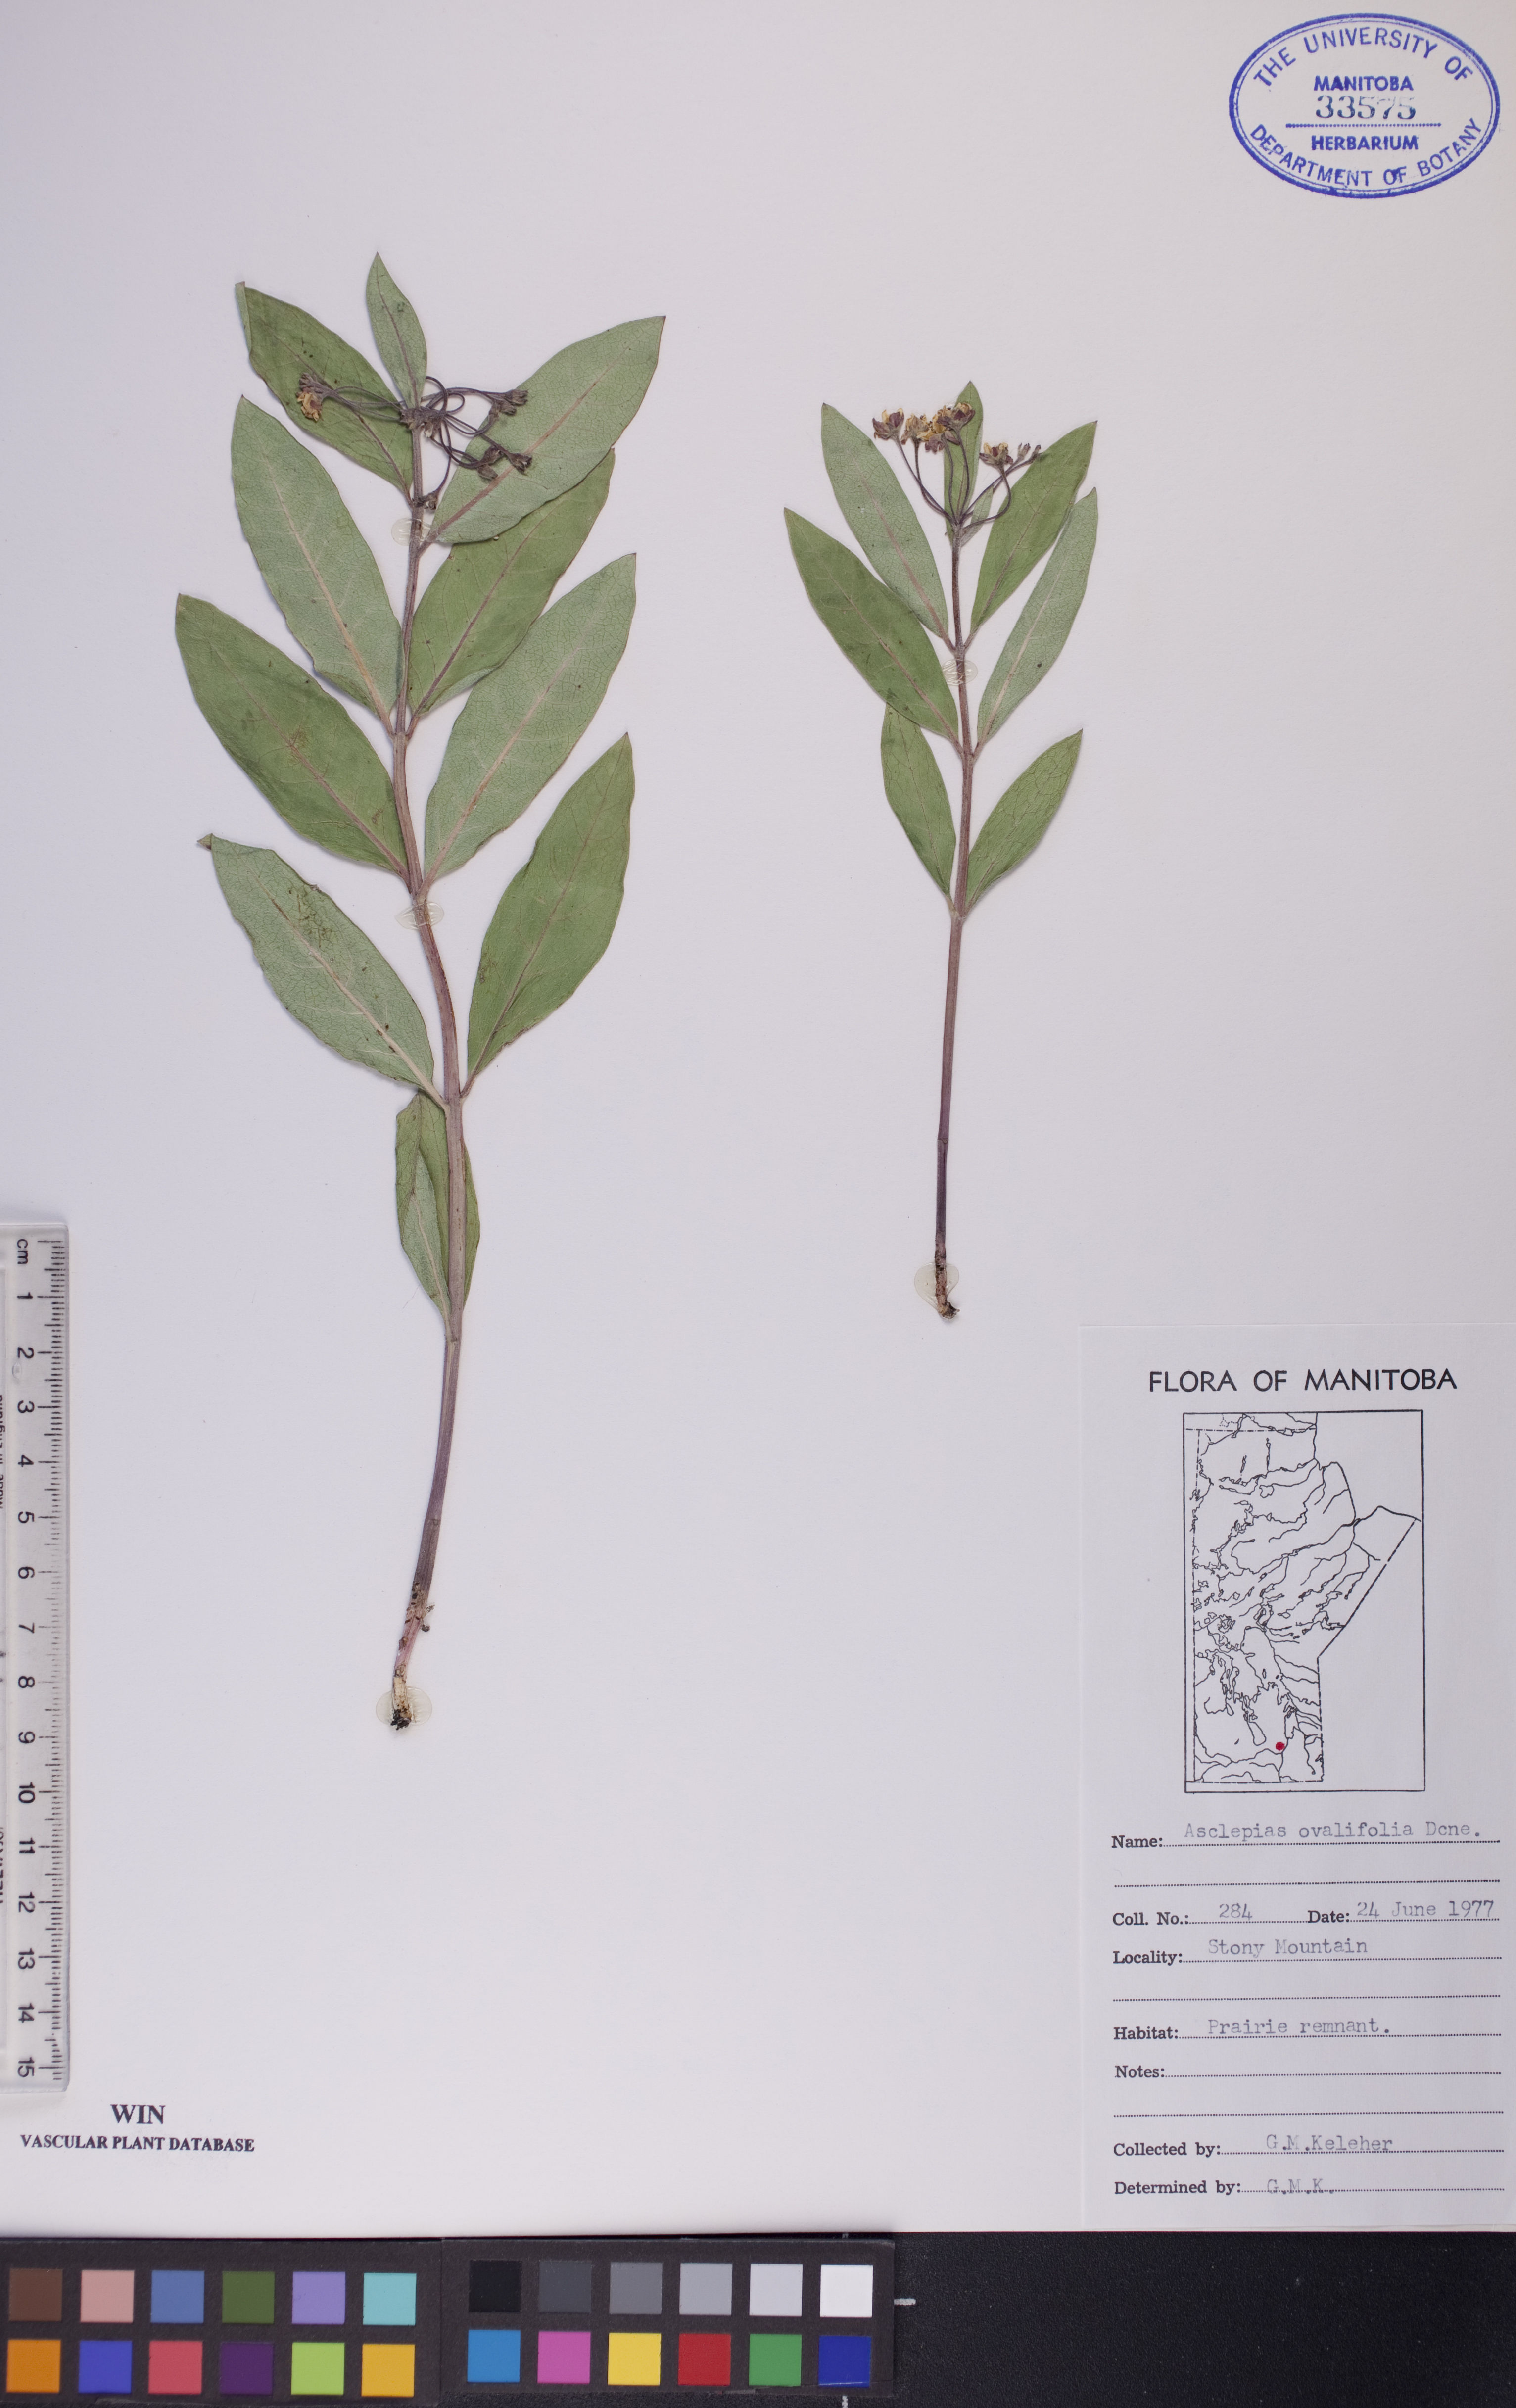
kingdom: Plantae
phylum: Tracheophyta
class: Magnoliopsida
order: Gentianales
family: Apocynaceae
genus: Asclepias
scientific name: Asclepias ovalifolia
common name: Dwarf milkweed
